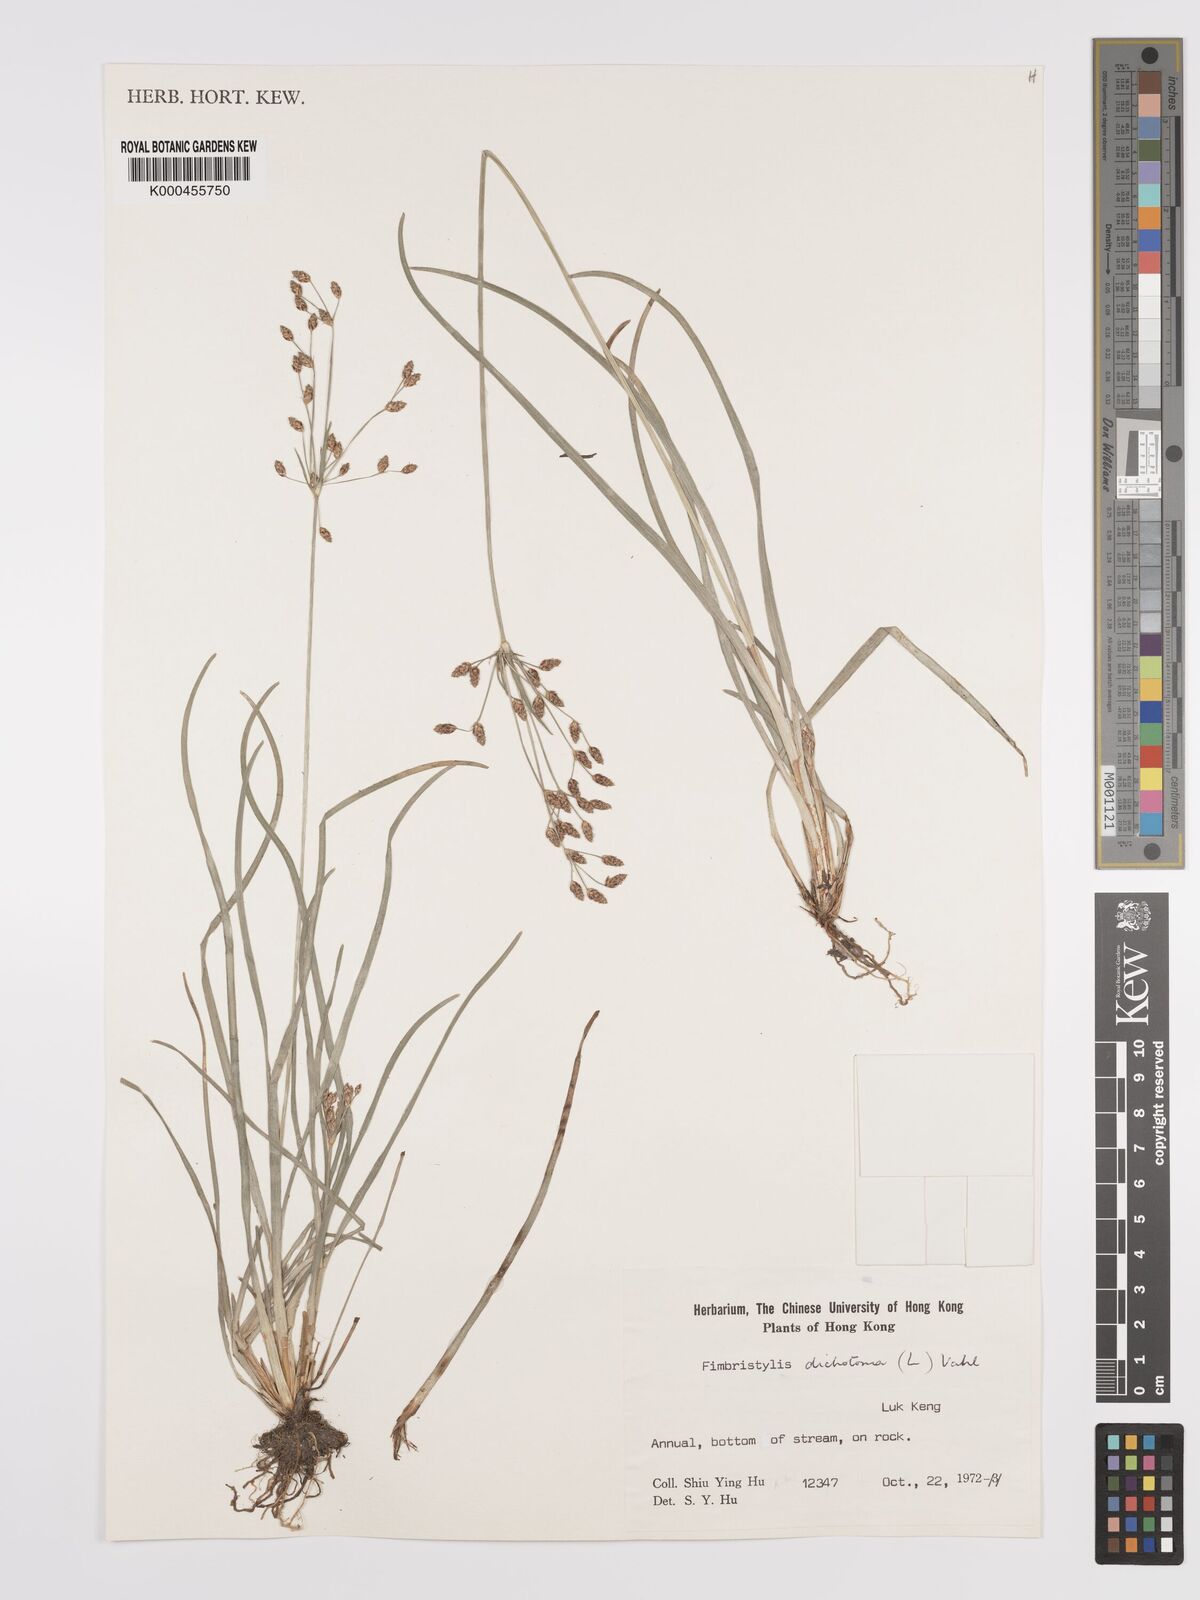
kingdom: Plantae
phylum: Tracheophyta
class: Liliopsida
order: Poales
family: Cyperaceae
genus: Fimbristylis
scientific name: Fimbristylis dichotoma
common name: Forked fimbry
